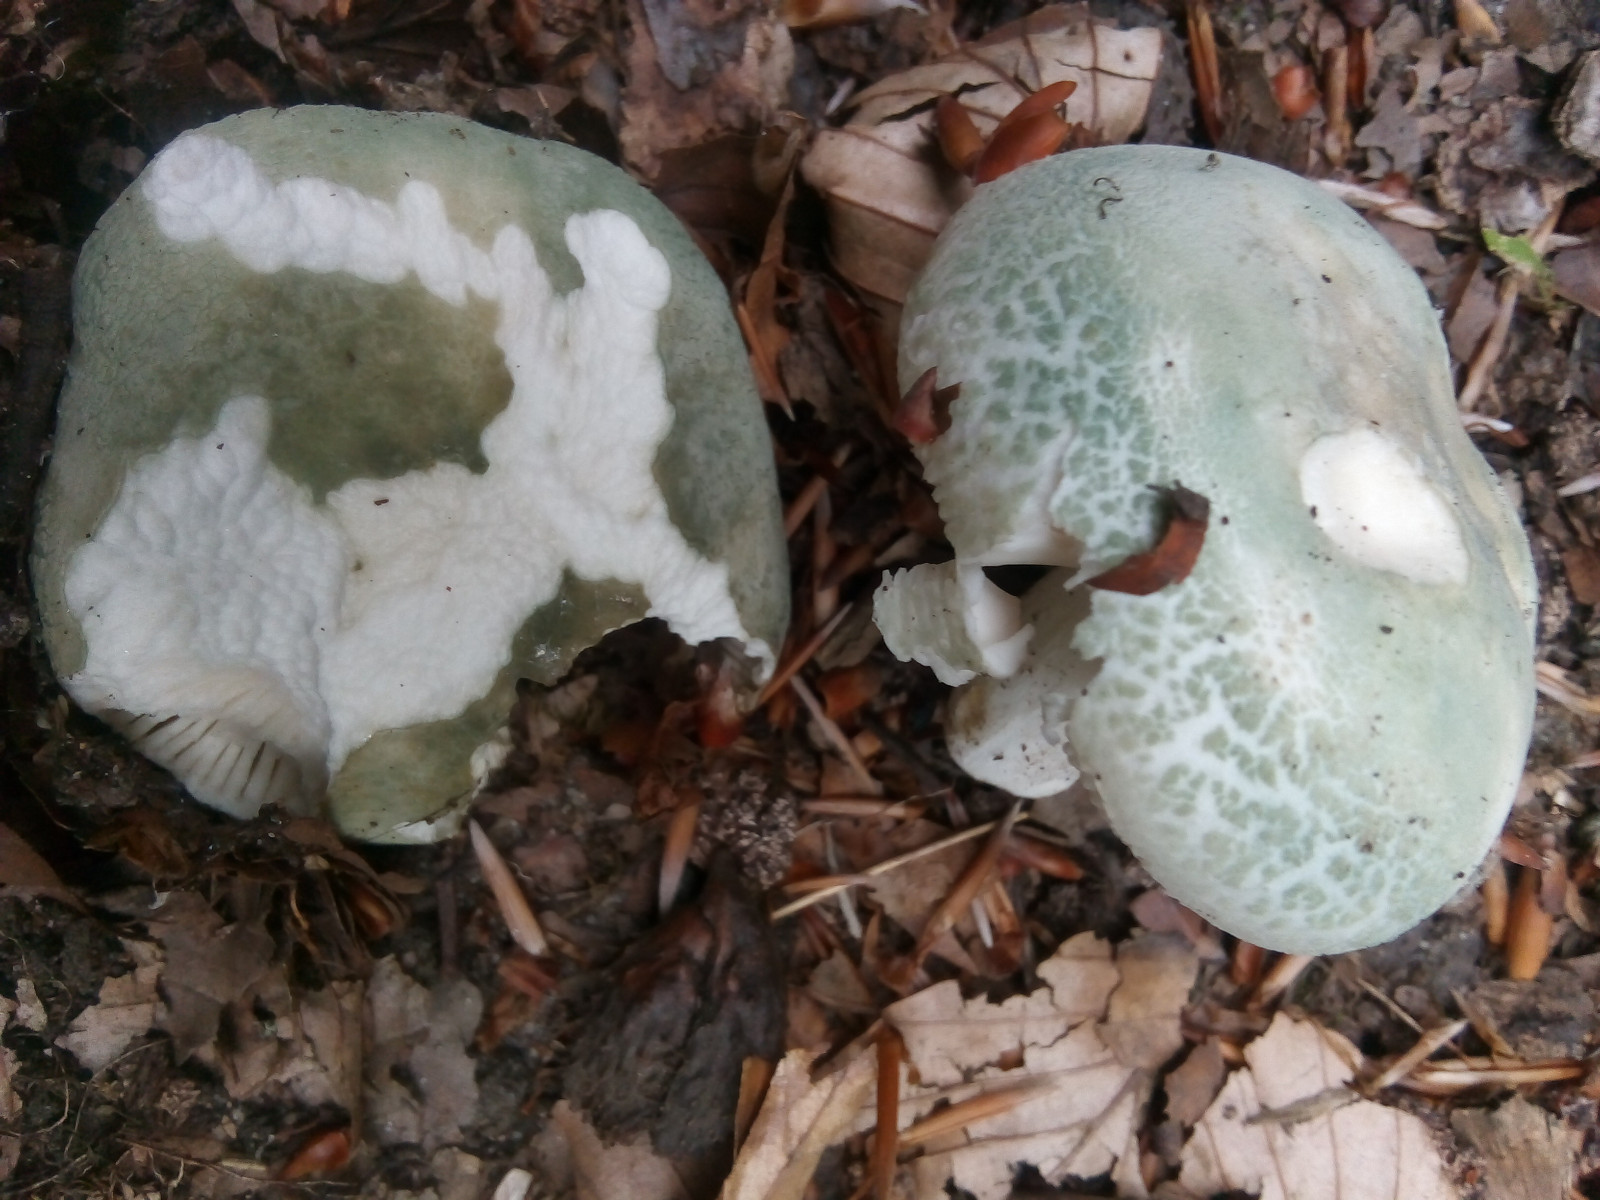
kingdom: Fungi
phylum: Basidiomycota
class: Agaricomycetes
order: Russulales
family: Russulaceae
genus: Russula
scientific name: Russula virescens
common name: spanskgrøn skørhat
